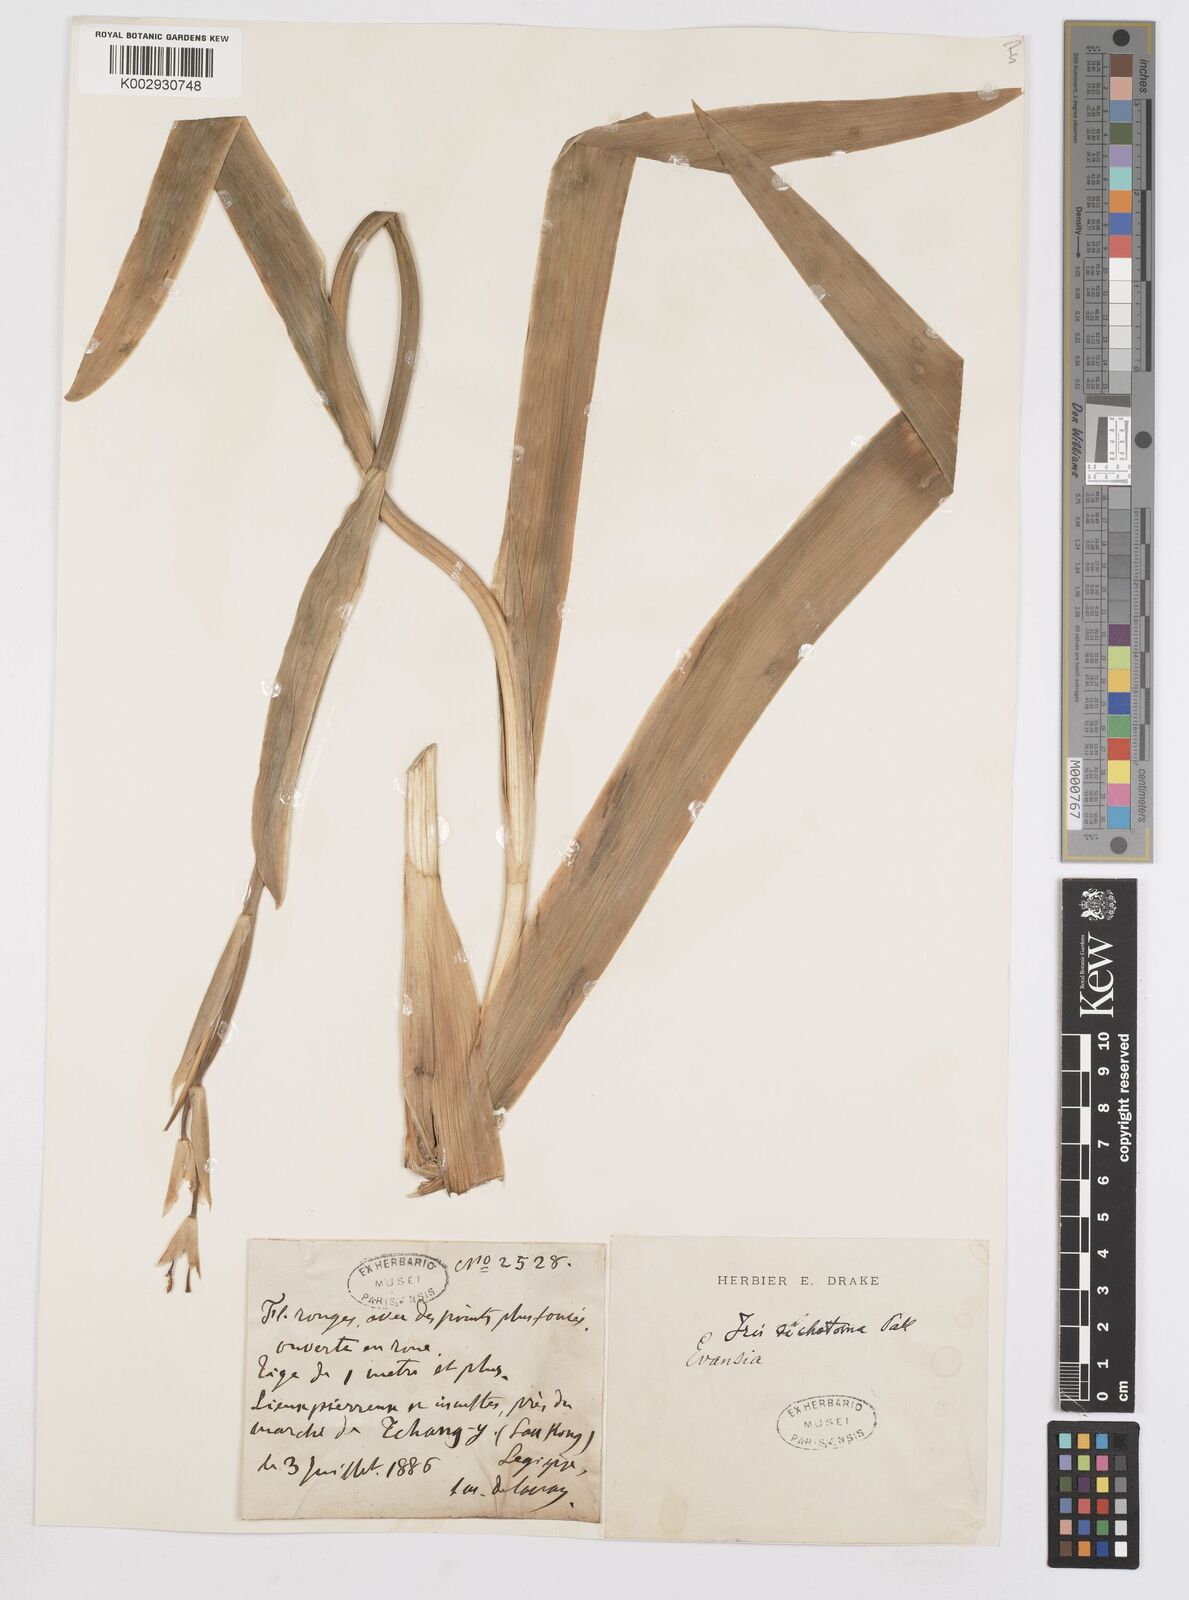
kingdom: Plantae
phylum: Tracheophyta
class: Liliopsida
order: Asparagales
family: Iridaceae
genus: Iris
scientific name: Iris dichotoma
